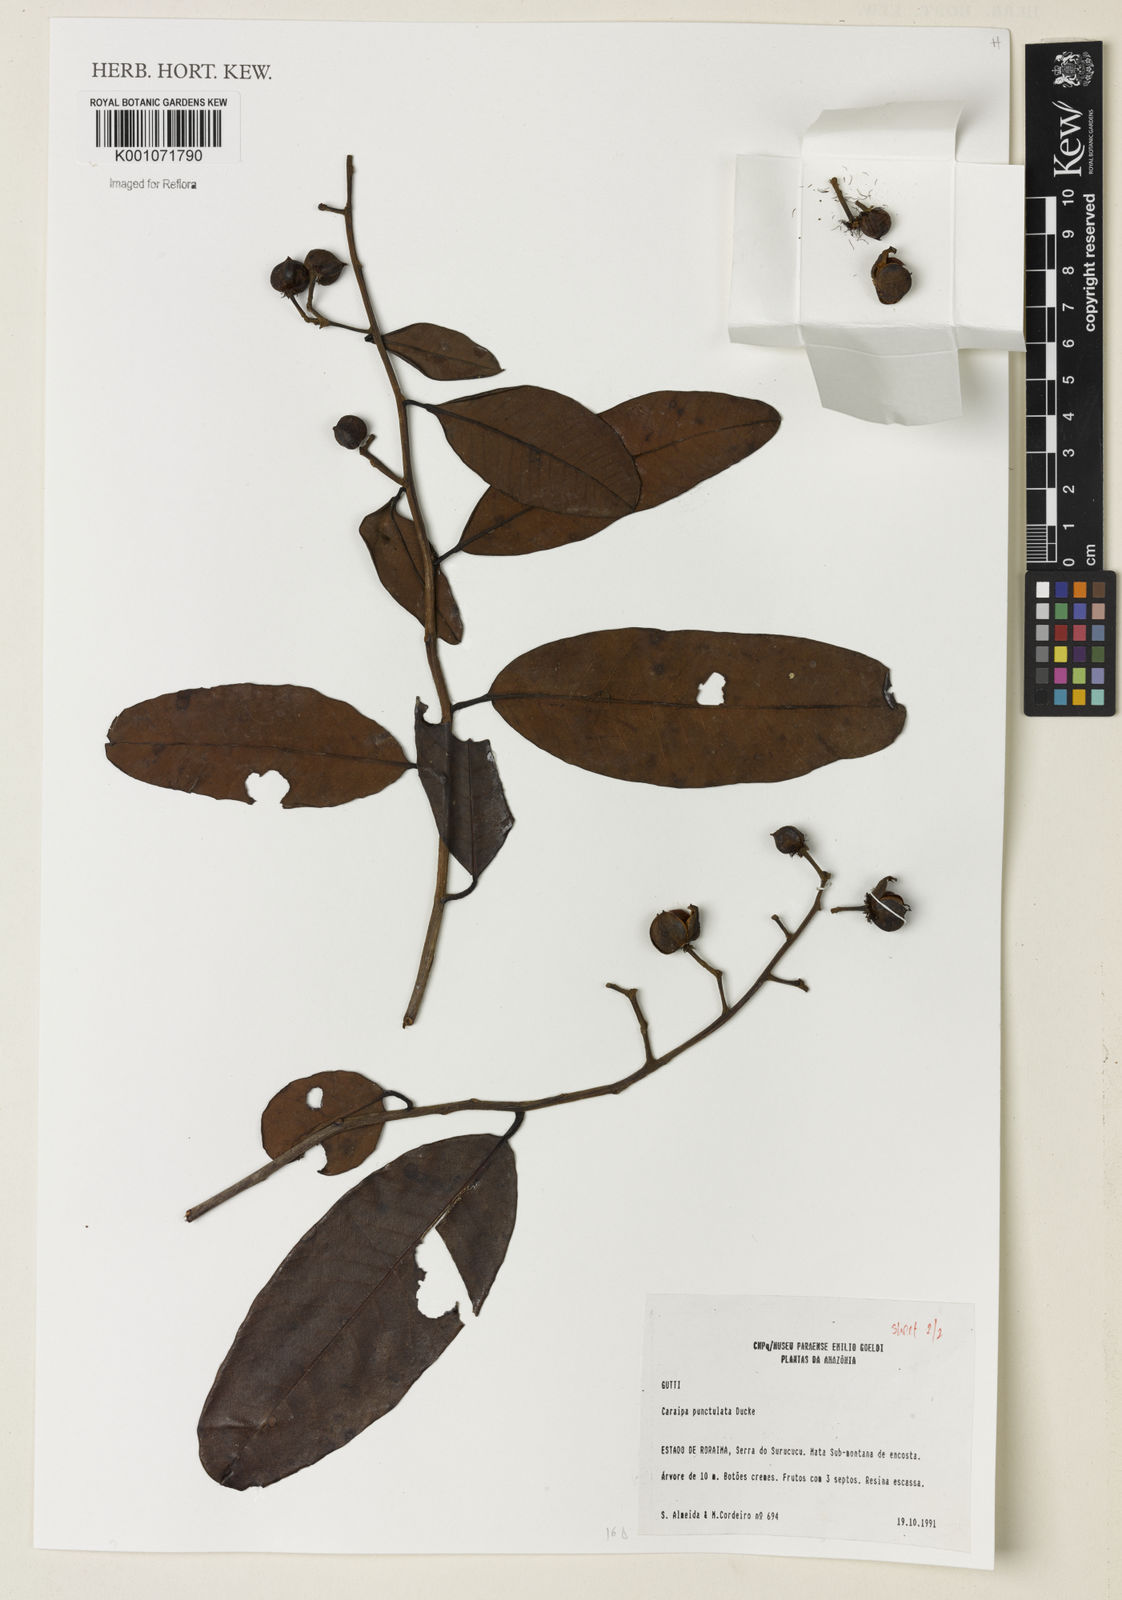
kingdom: Plantae
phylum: Tracheophyta
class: Magnoliopsida
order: Malpighiales
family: Calophyllaceae
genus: Caraipa
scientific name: Caraipa punctulata
